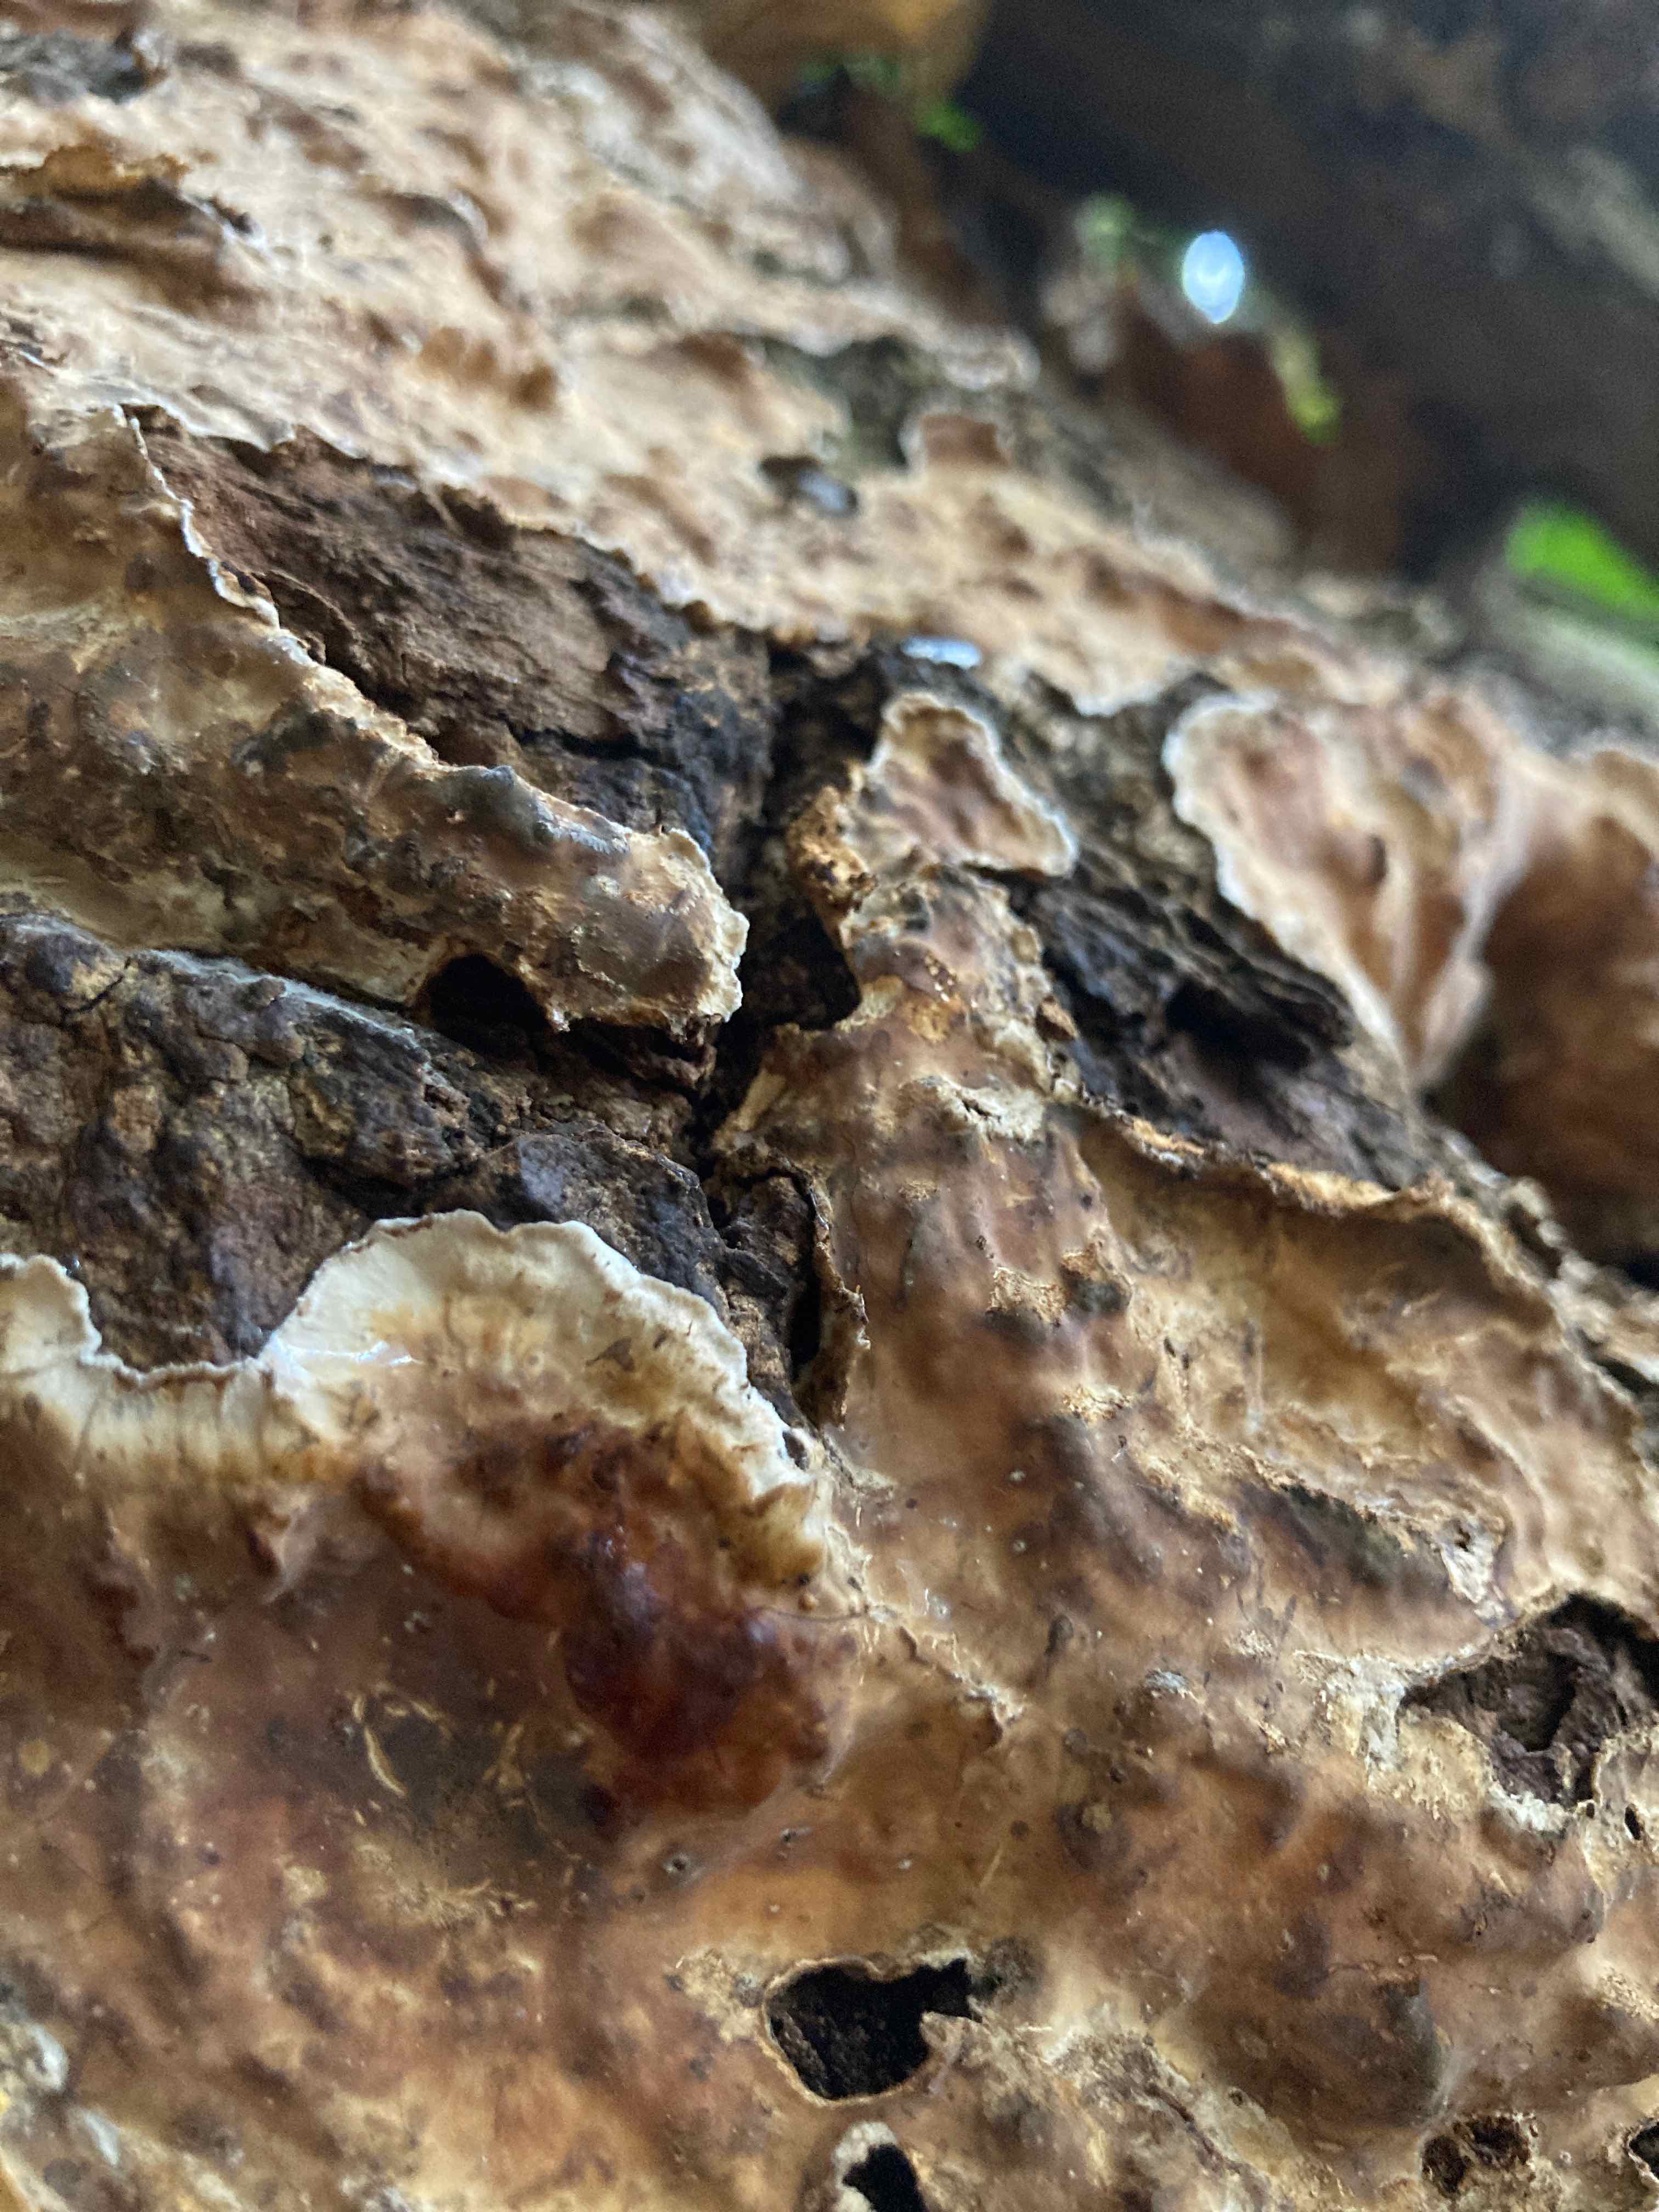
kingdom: Fungi
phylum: Basidiomycota
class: Agaricomycetes
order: Russulales
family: Stereaceae
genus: Stereum
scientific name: Stereum gausapatum
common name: tynd lædersvamp
